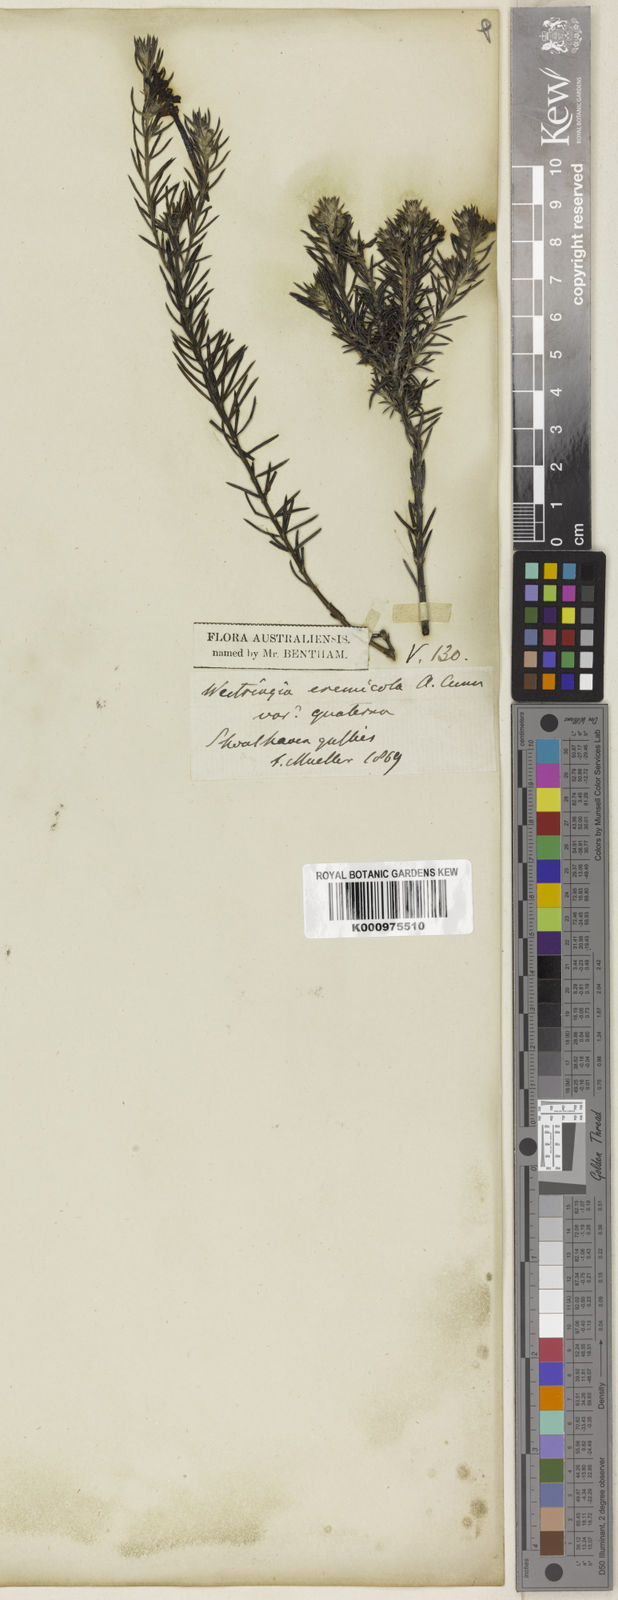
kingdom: Plantae
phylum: Tracheophyta
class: Magnoliopsida
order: Lamiales
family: Lamiaceae
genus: Westringia
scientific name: Westringia eremicola
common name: Slender western-rosemary
